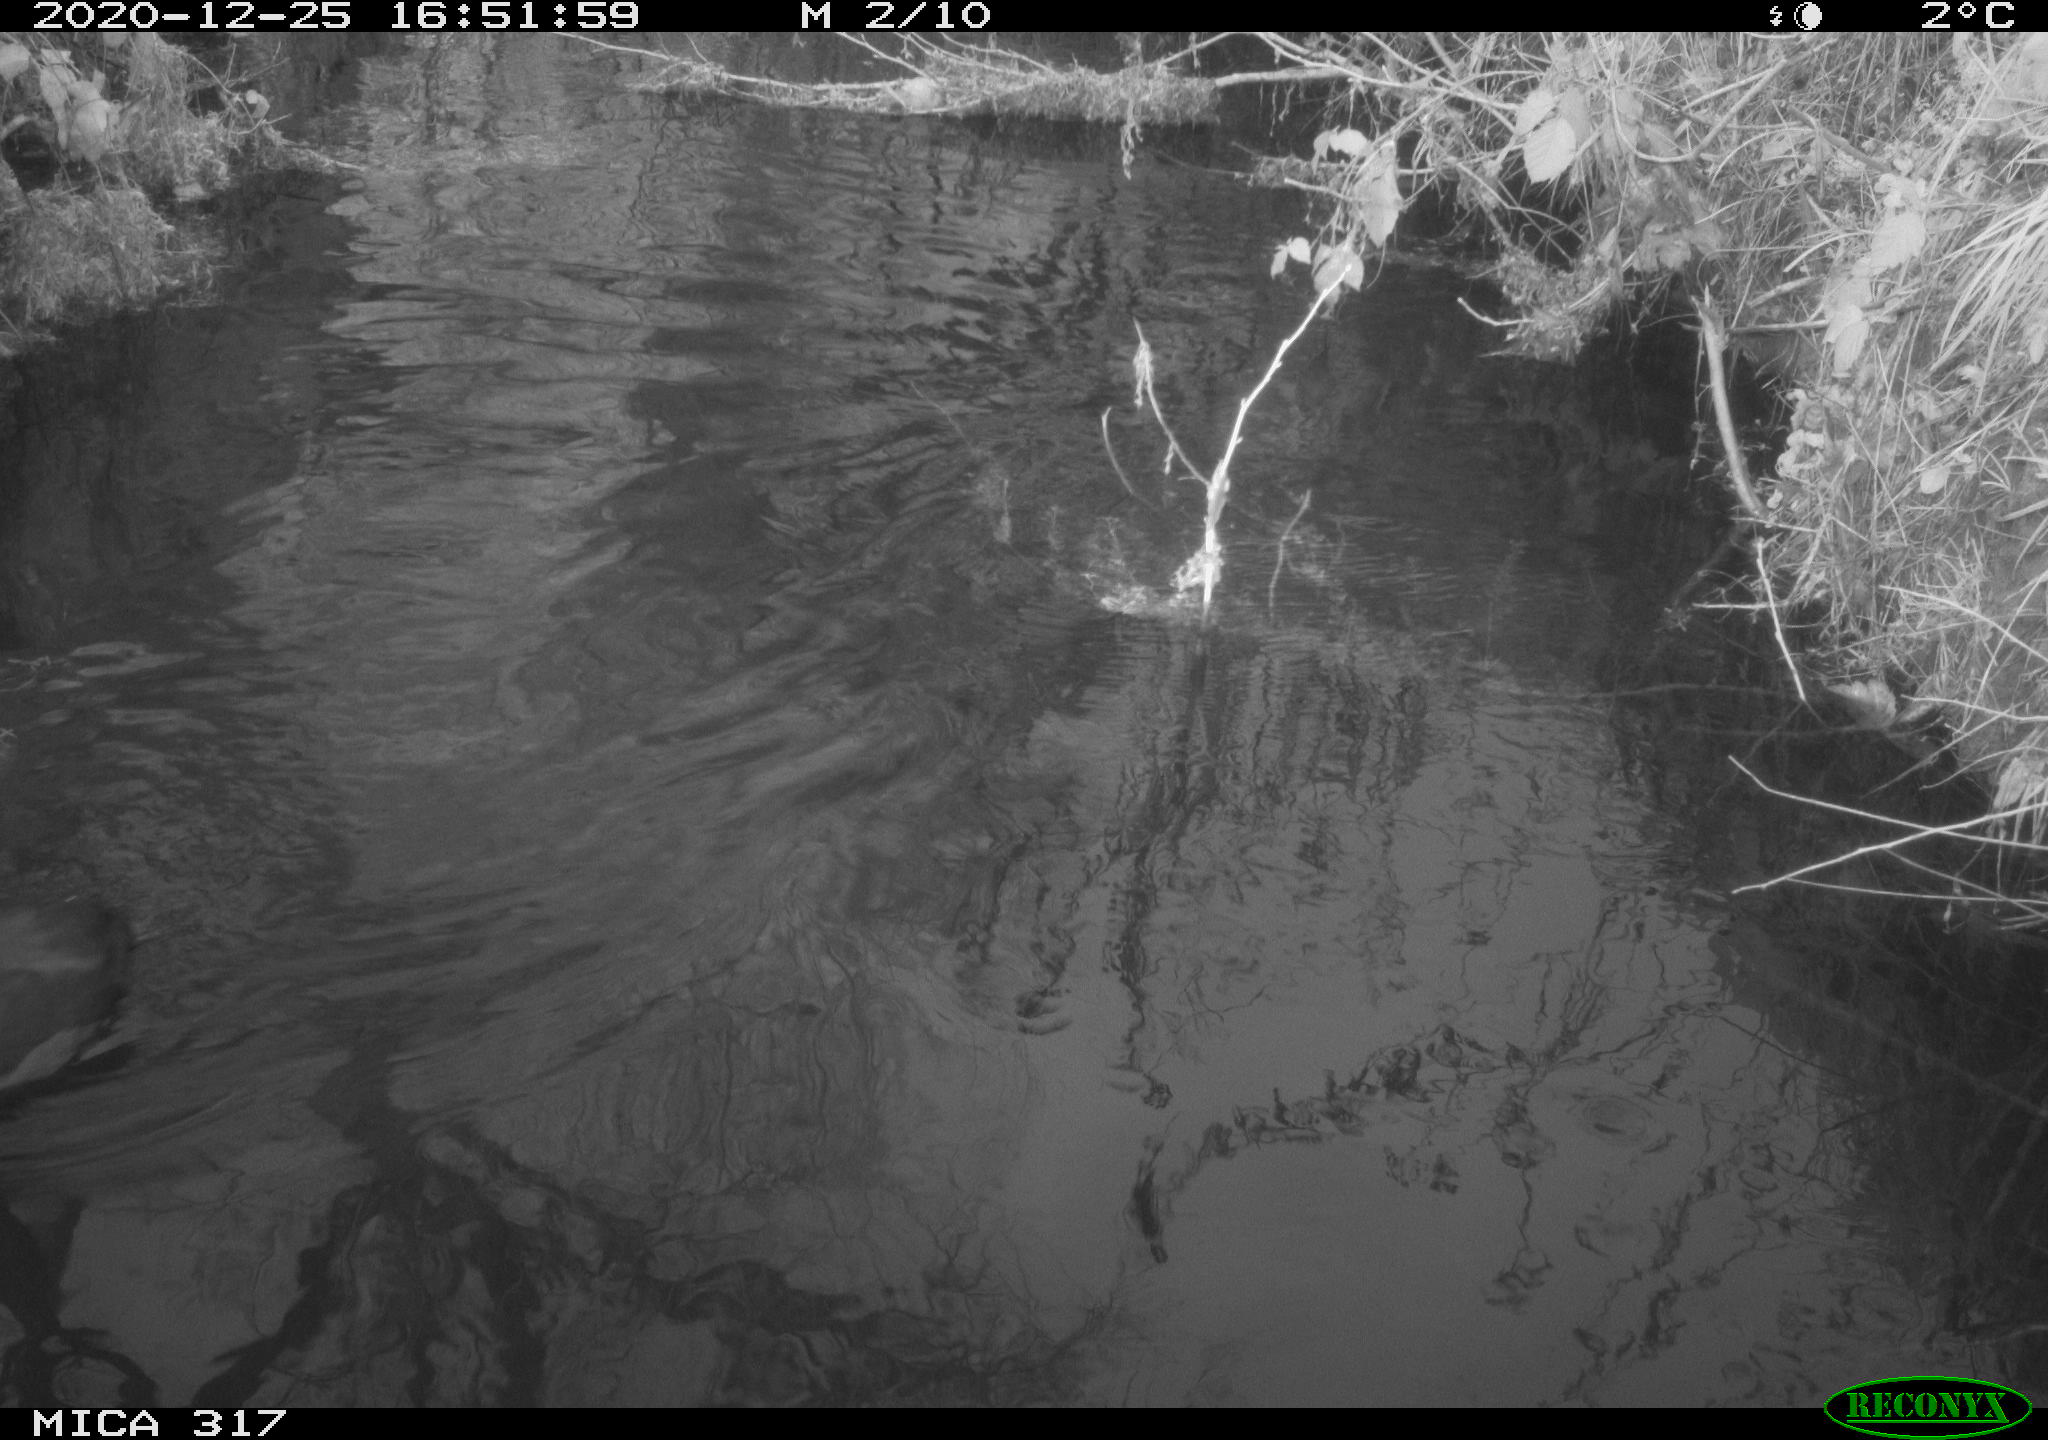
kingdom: Animalia
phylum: Chordata
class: Aves
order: Gruiformes
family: Rallidae
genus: Fulica
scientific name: Fulica atra
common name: Eurasian coot
